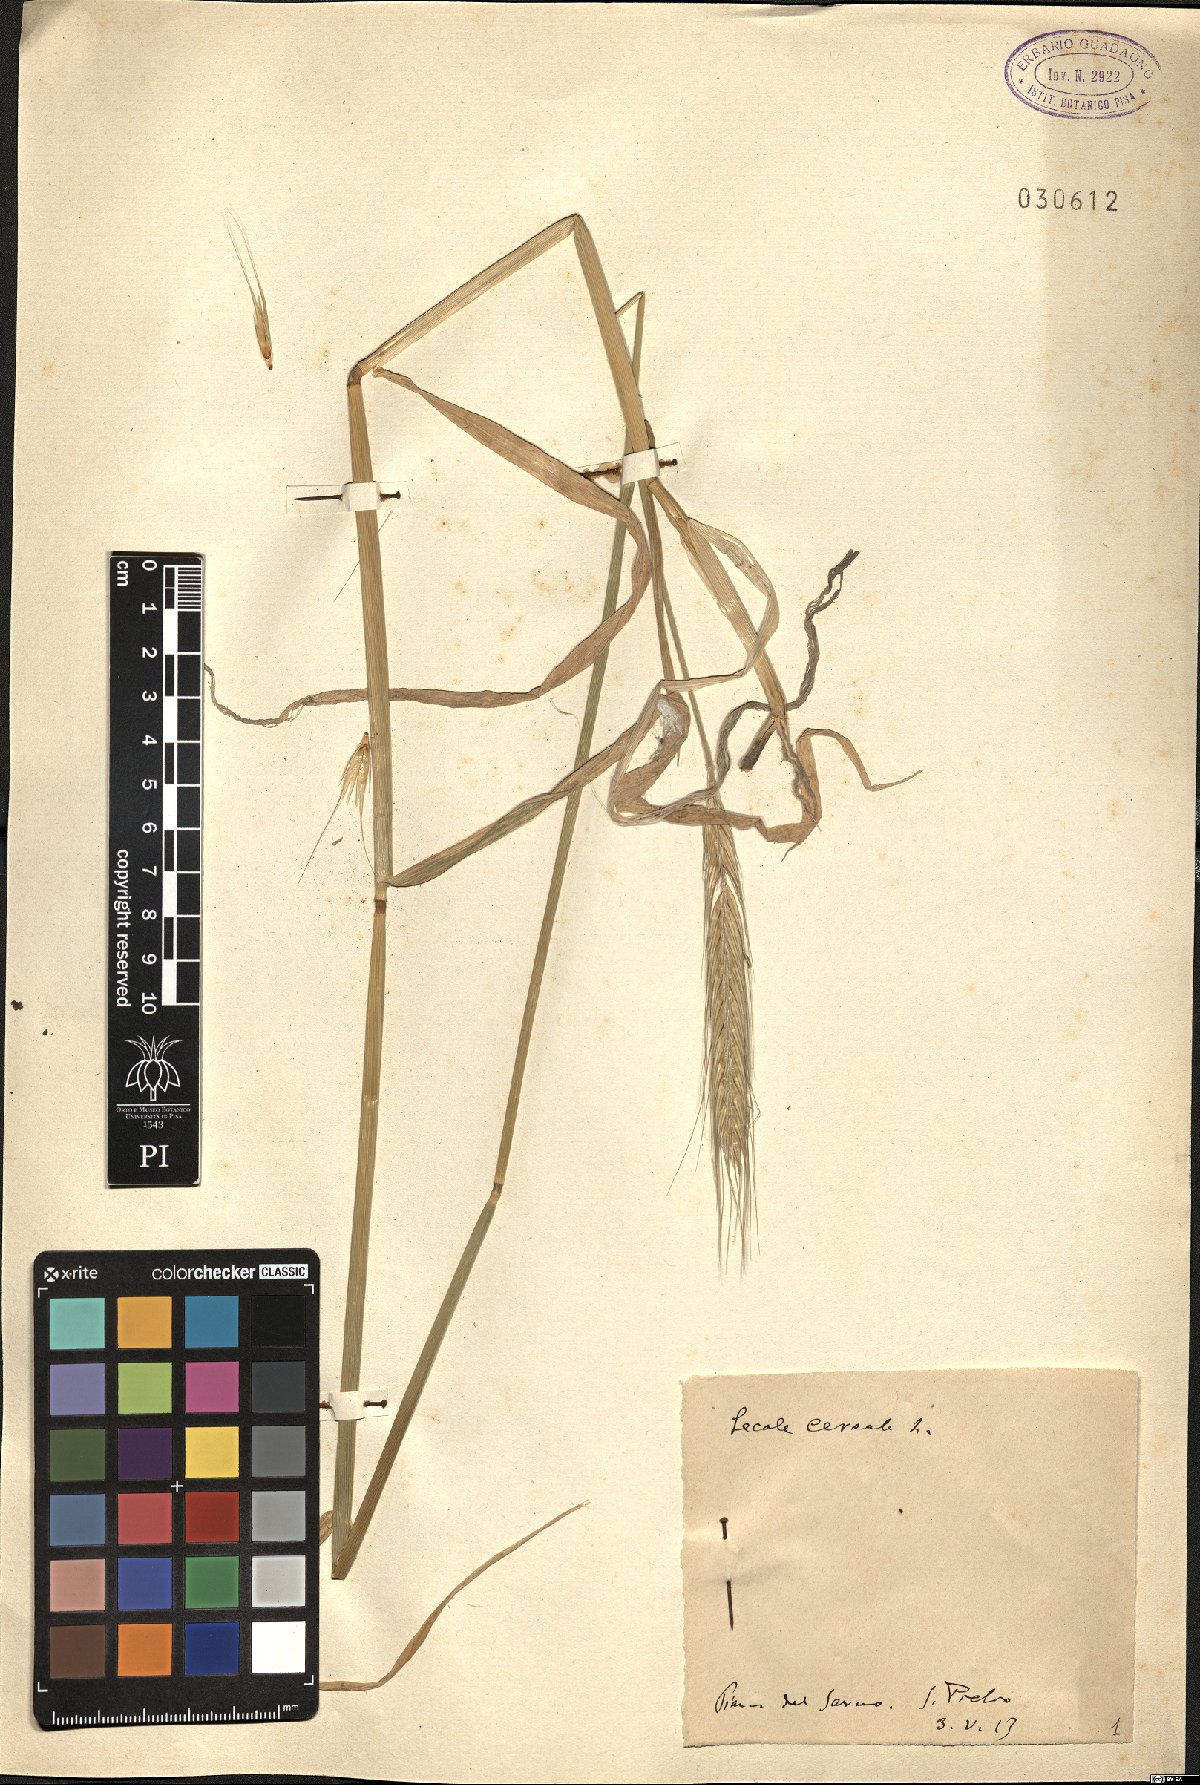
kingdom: Plantae
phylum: Tracheophyta
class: Liliopsida
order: Poales
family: Poaceae
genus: Secale
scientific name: Secale cereale
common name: Rye
